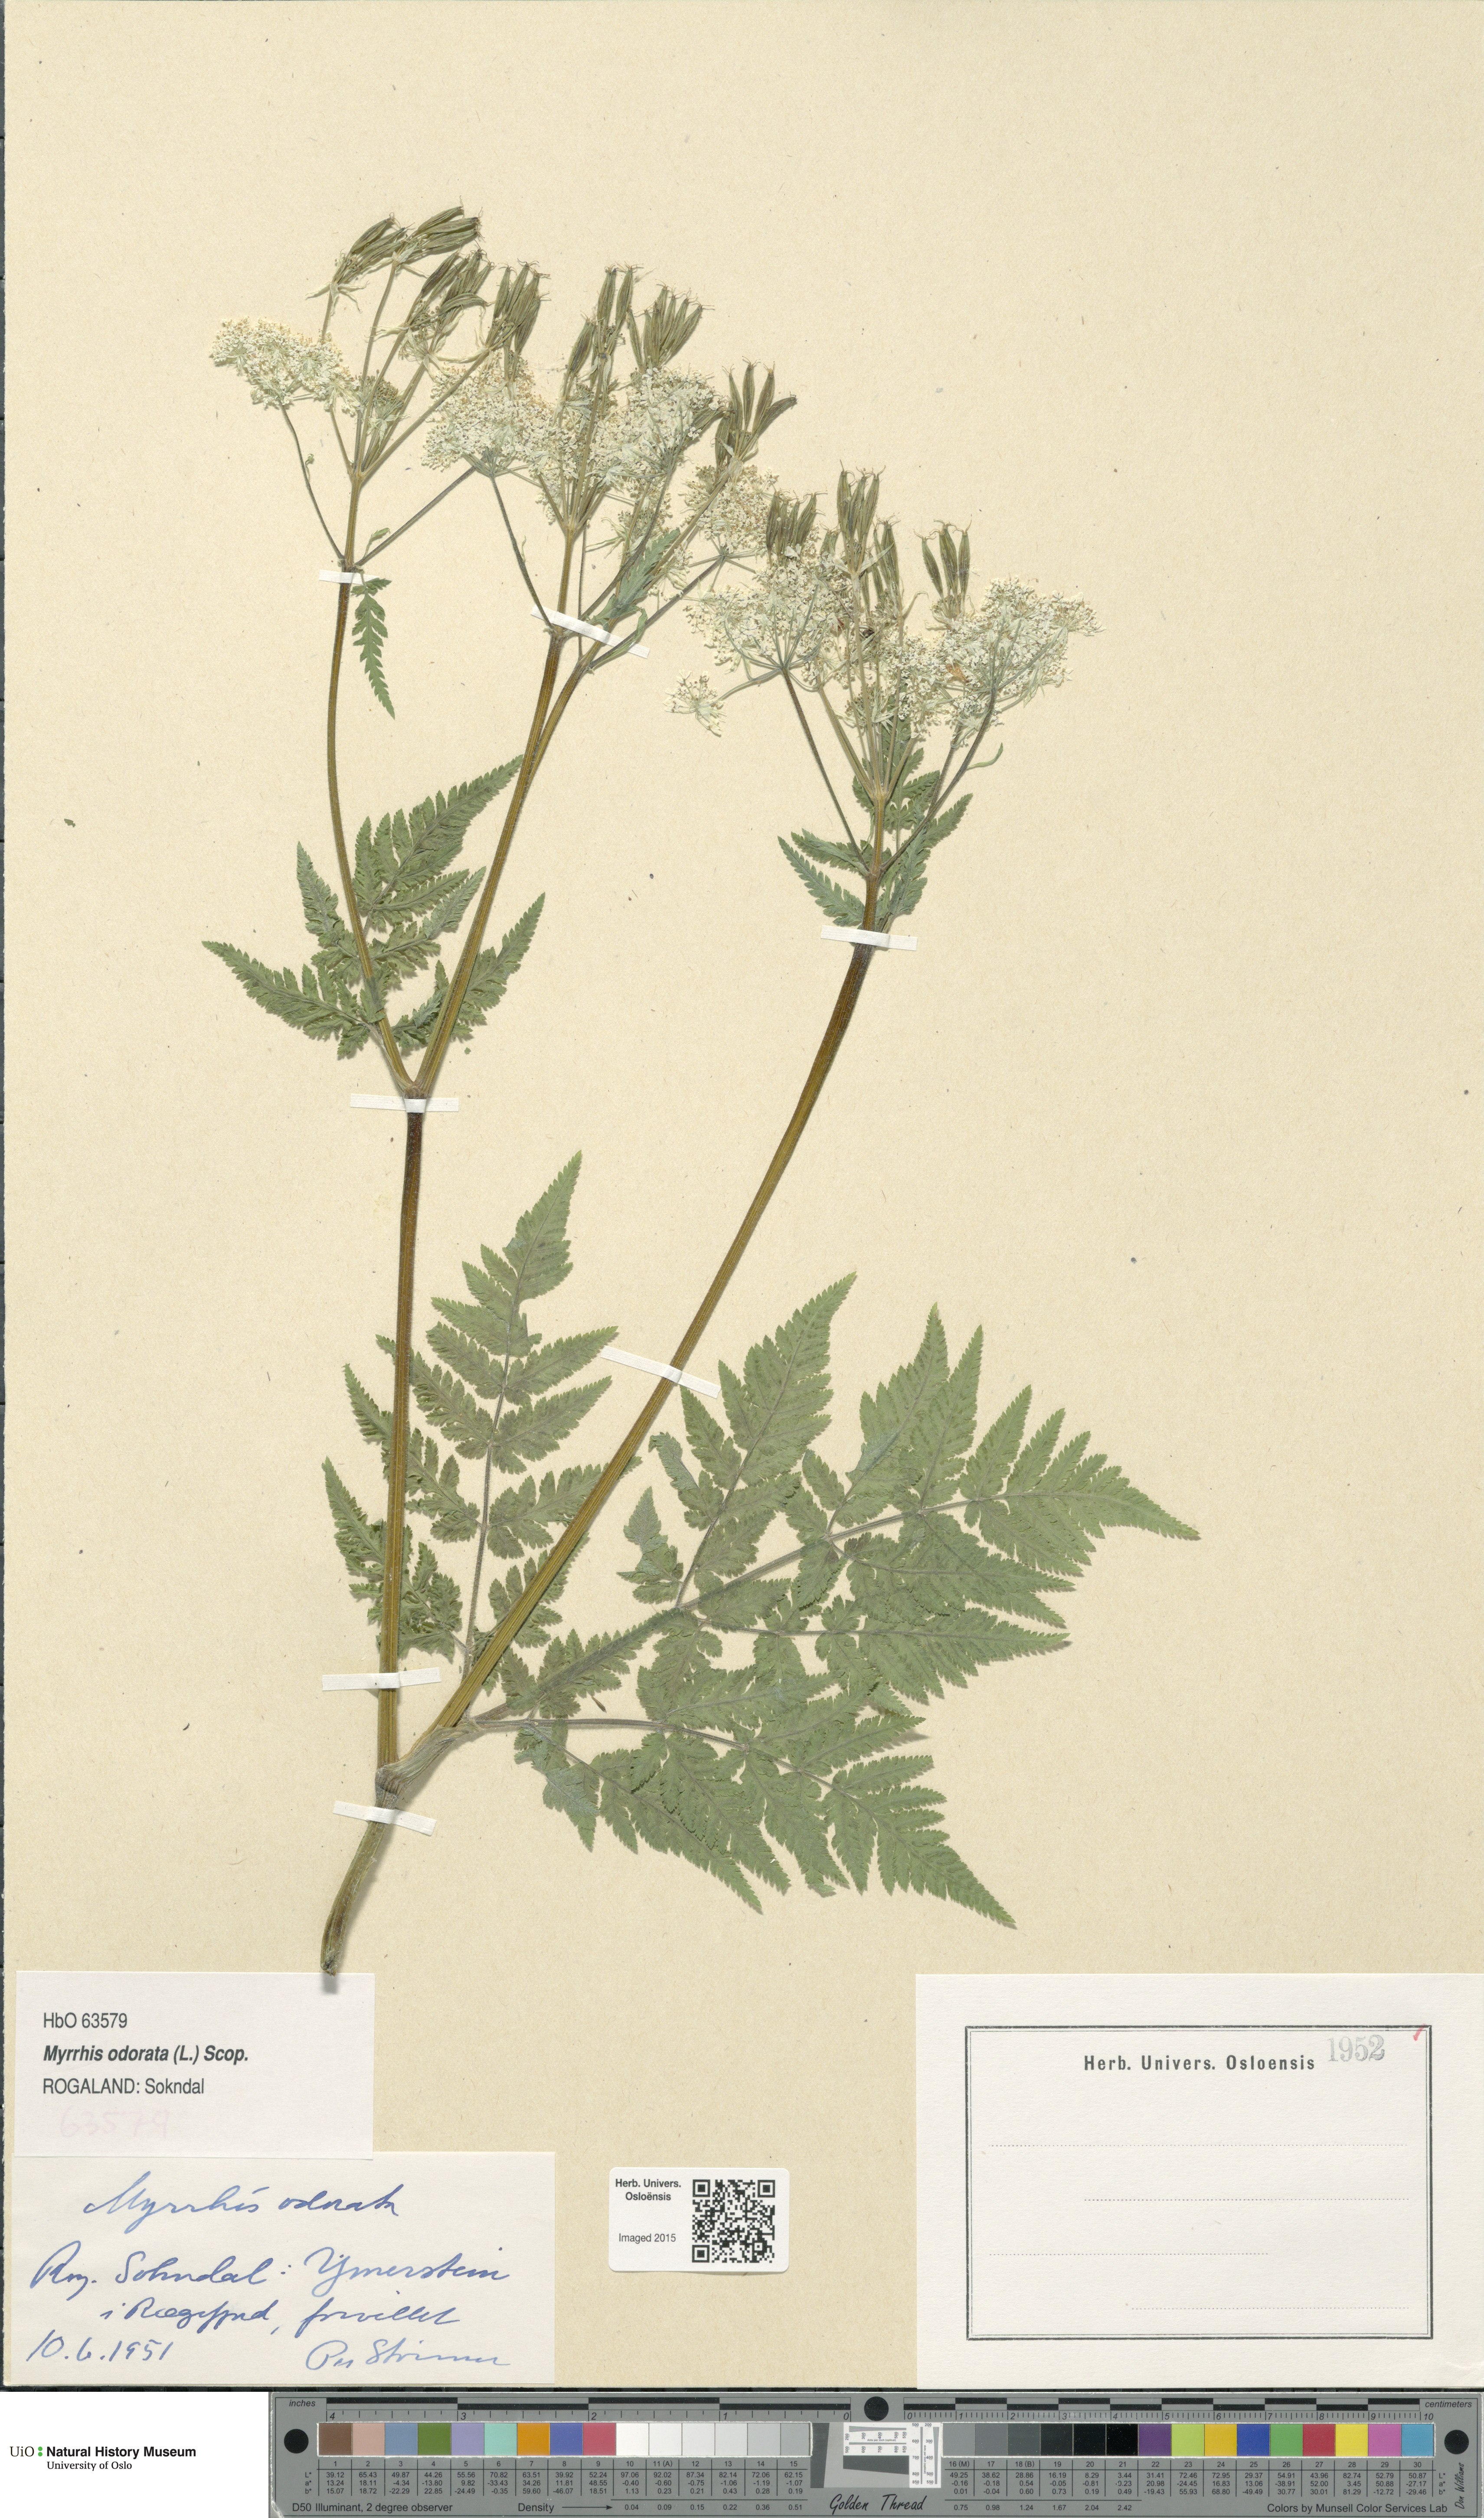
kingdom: Plantae
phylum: Tracheophyta
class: Magnoliopsida
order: Apiales
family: Apiaceae
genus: Myrrhis
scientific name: Myrrhis odorata
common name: Sweet cicely
